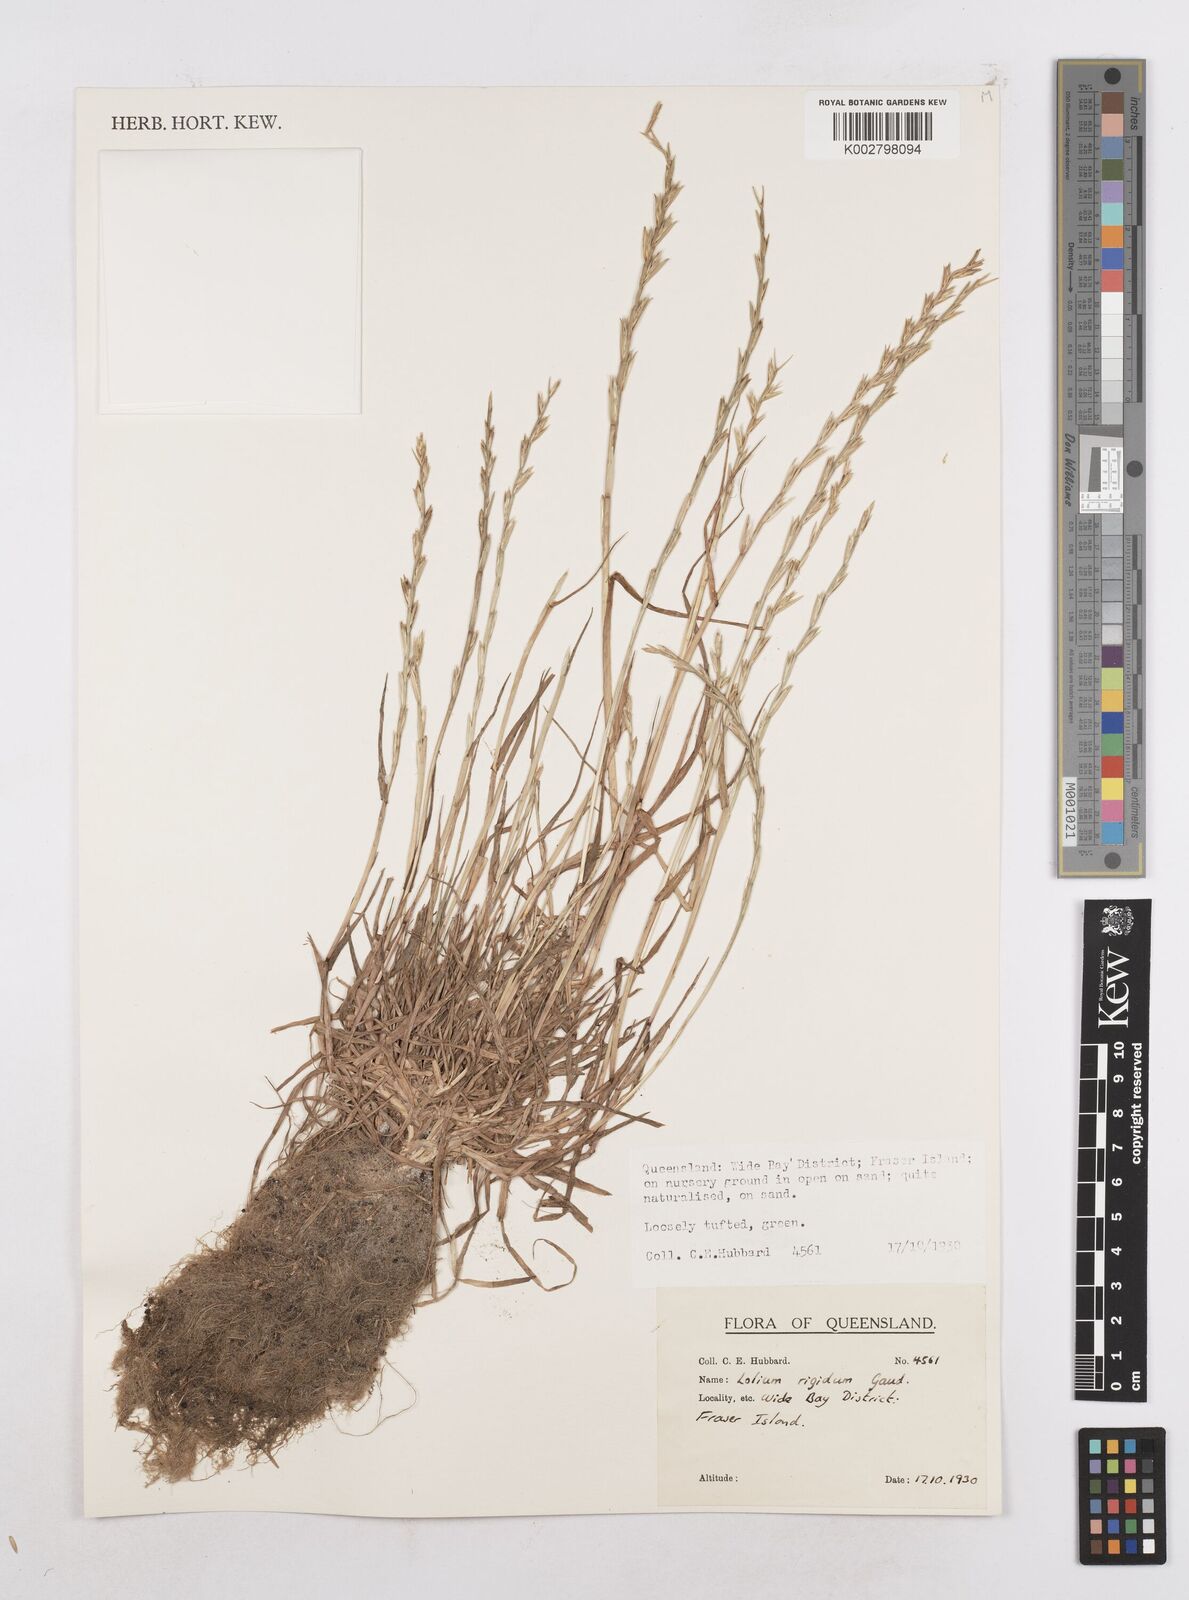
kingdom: Plantae
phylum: Tracheophyta
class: Liliopsida
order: Poales
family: Poaceae
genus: Lolium
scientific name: Lolium
